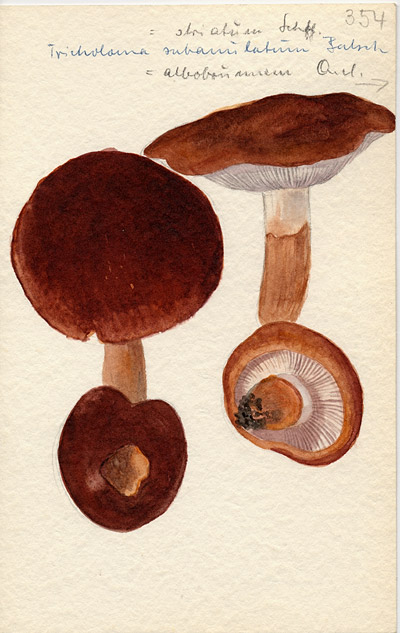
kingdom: Fungi
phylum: Basidiomycota
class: Agaricomycetes
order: Agaricales
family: Tricholomataceae
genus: Tricholoma
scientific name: Tricholoma fracticum
